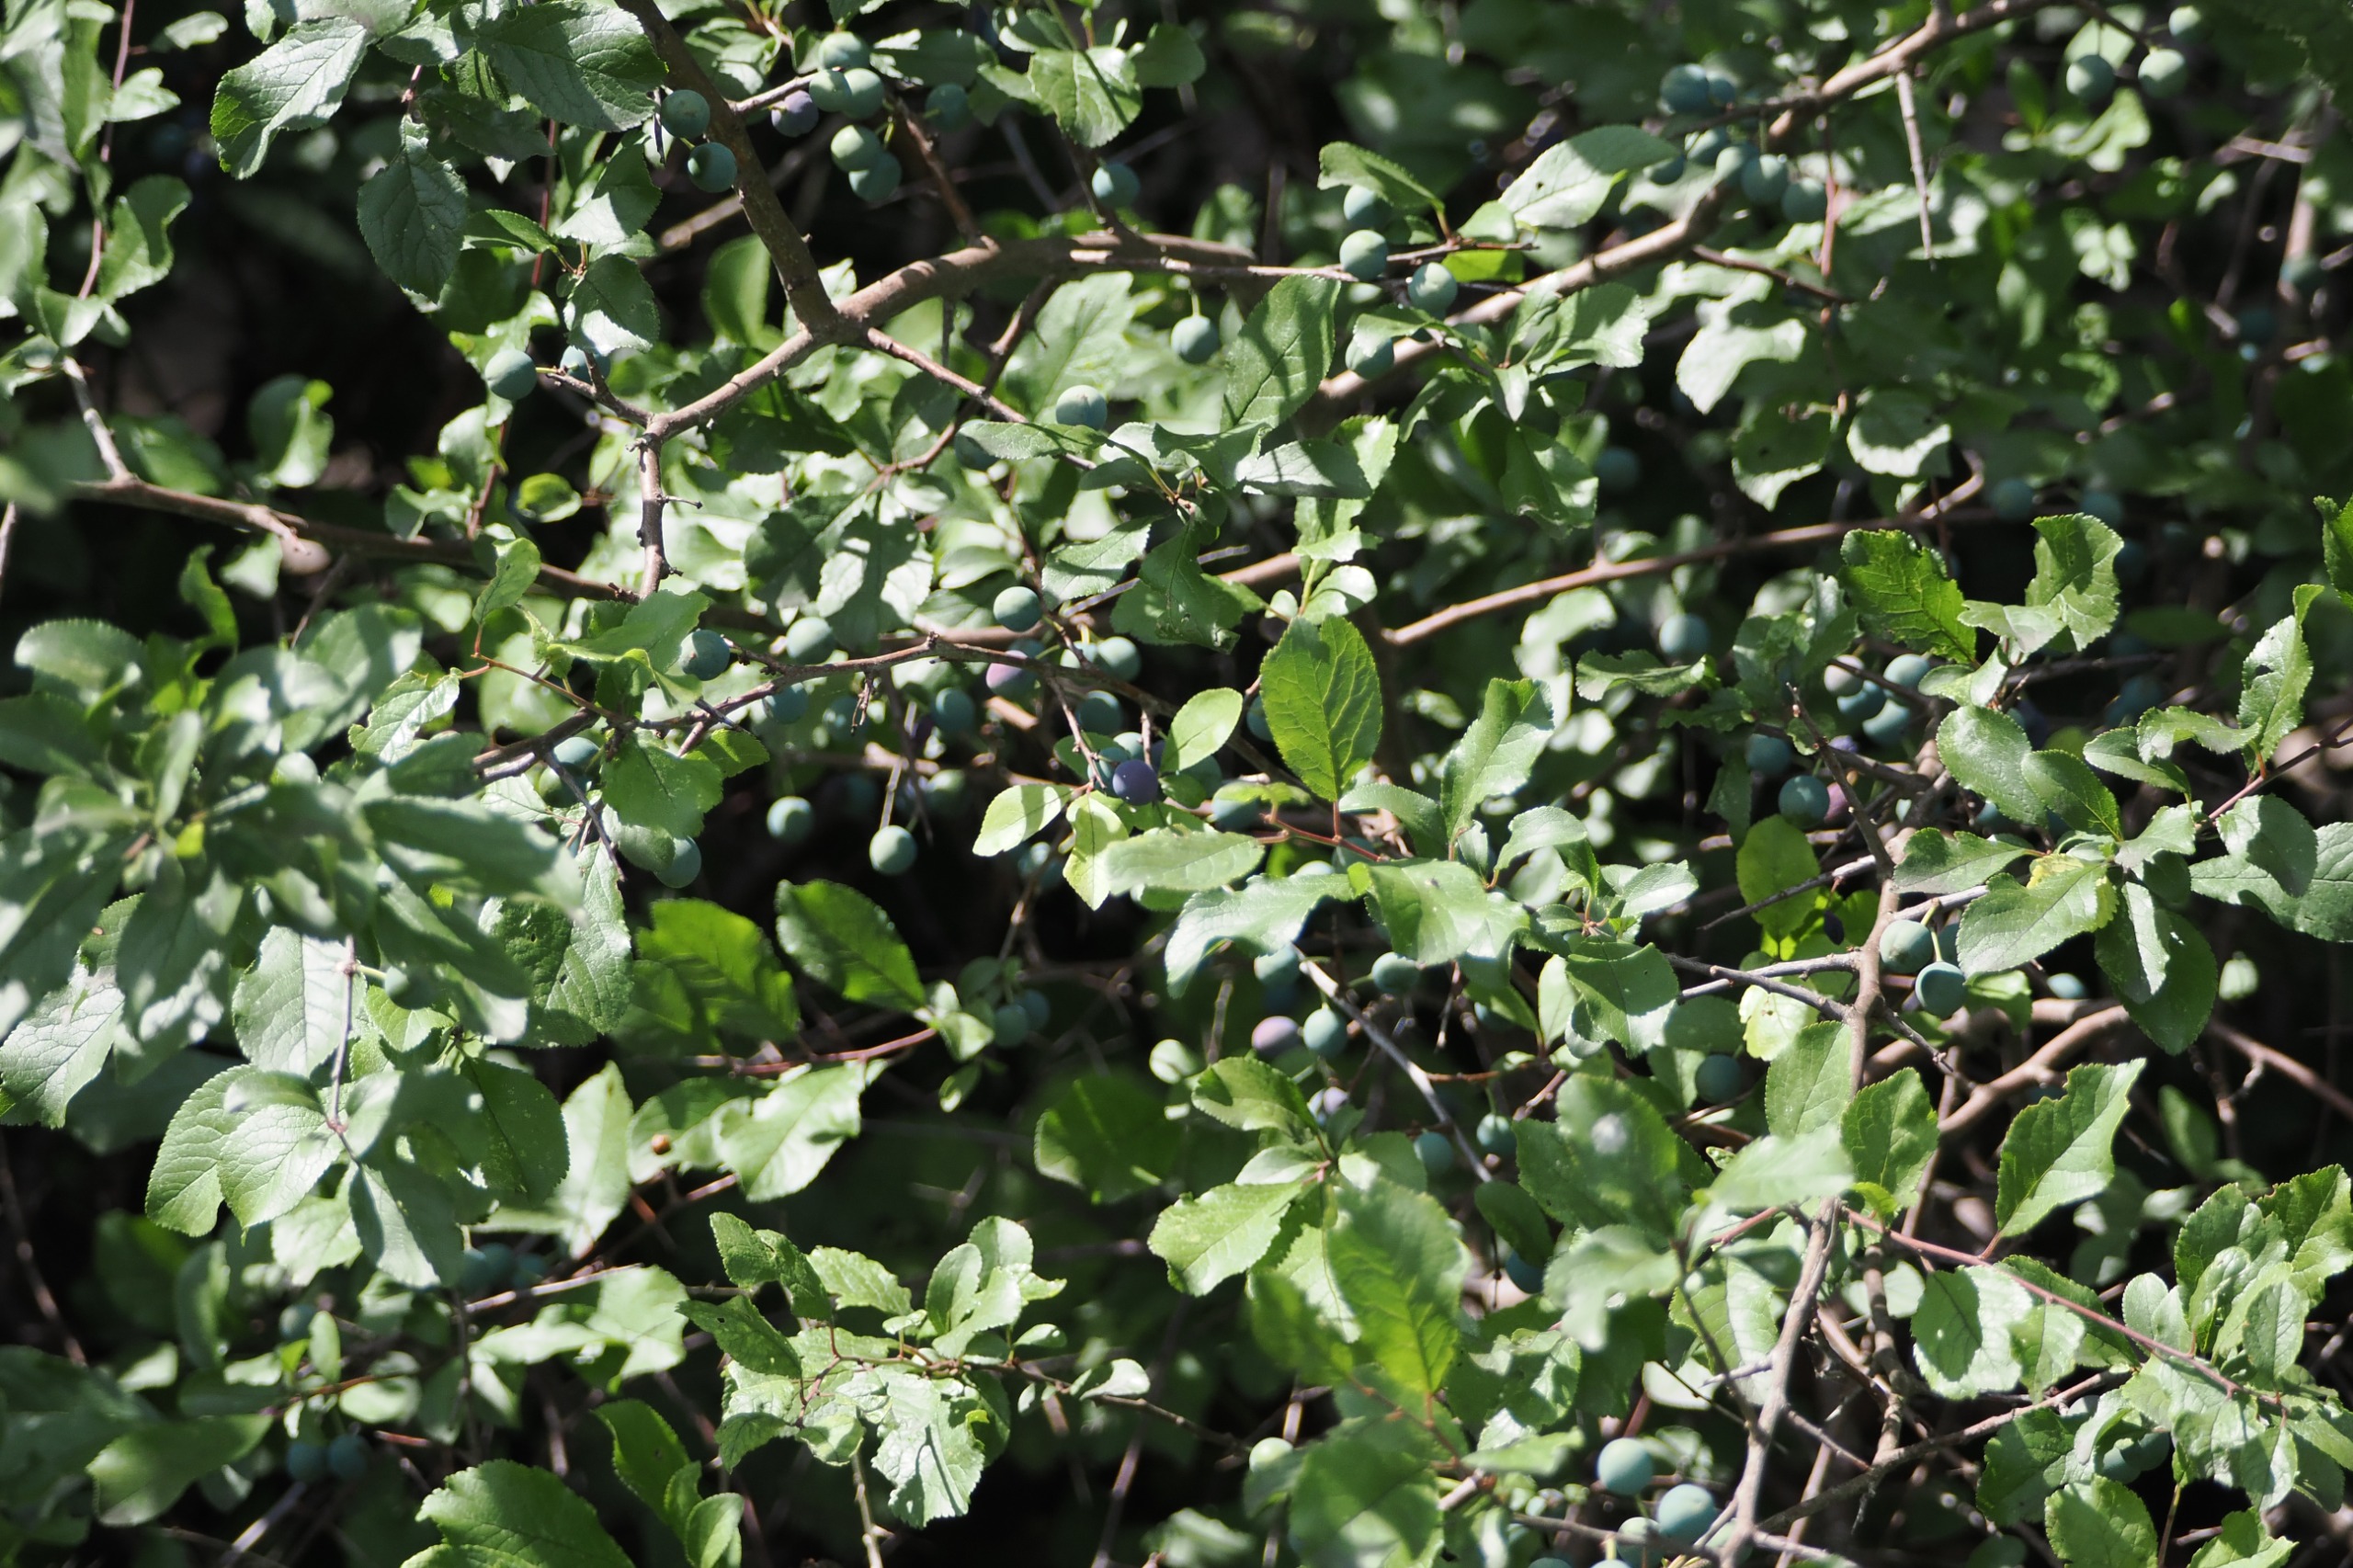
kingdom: Plantae
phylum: Tracheophyta
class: Magnoliopsida
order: Rosales
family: Rosaceae
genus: Prunus
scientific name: Prunus spinosa
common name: Slåen
